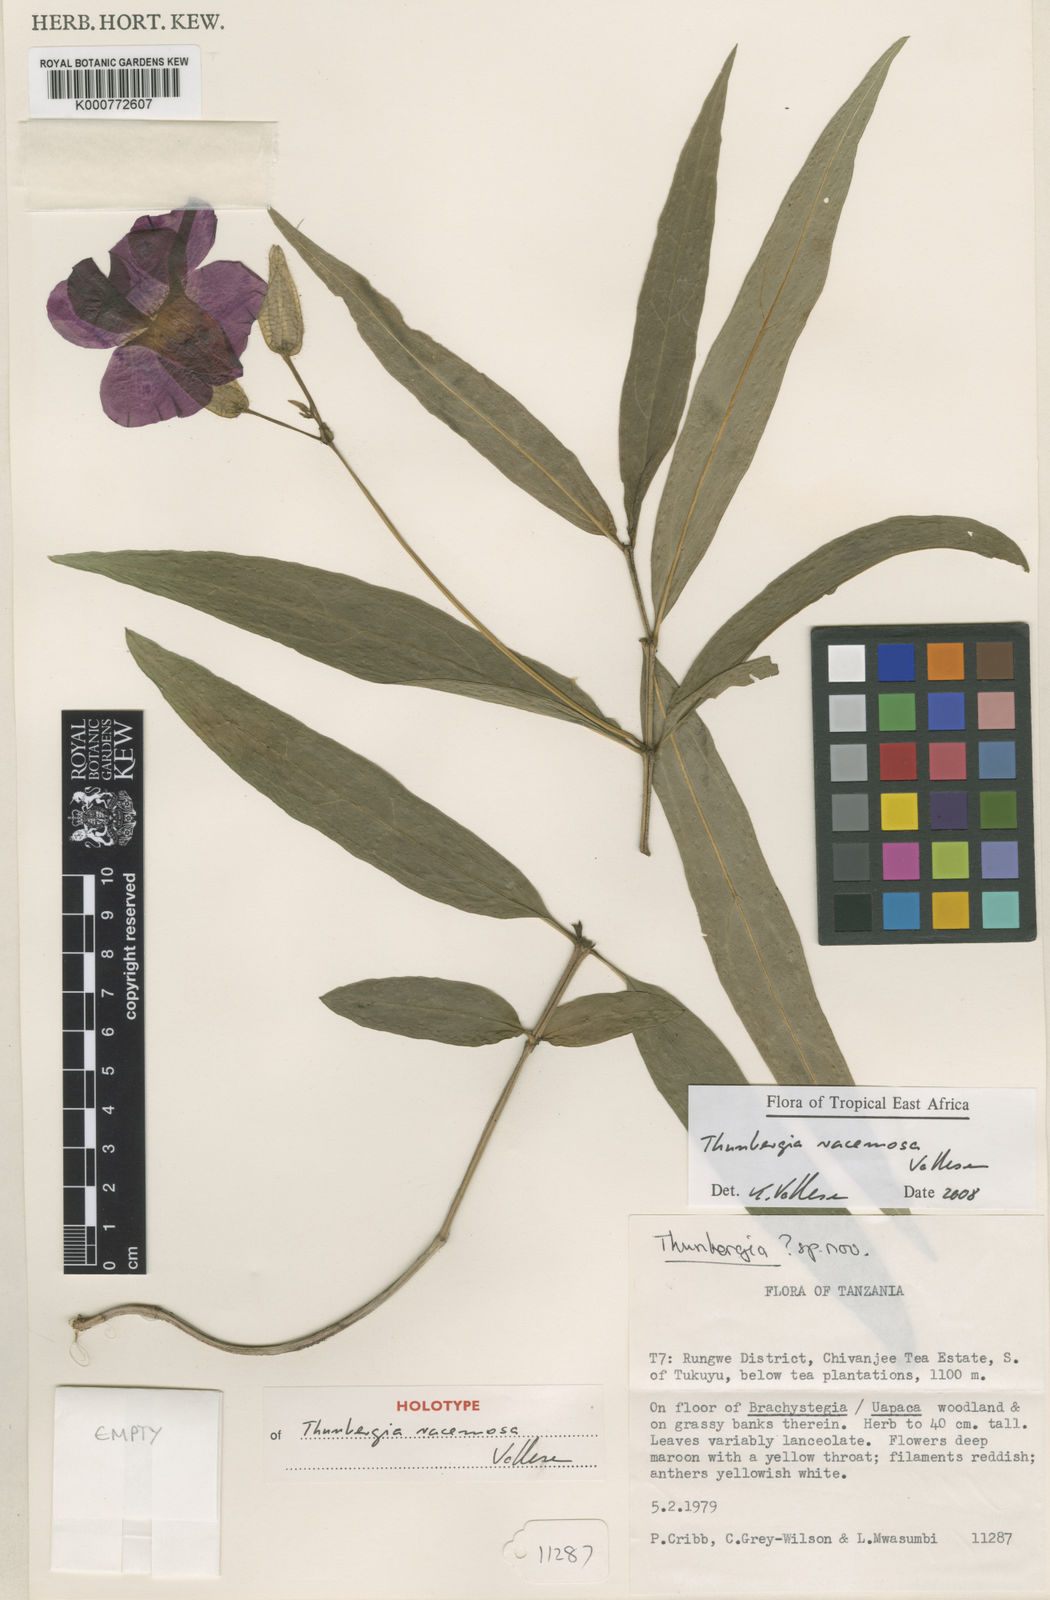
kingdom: Plantae
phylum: Tracheophyta
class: Magnoliopsida
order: Lamiales
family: Acanthaceae
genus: Thunbergia
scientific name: Thunbergia racemosa
